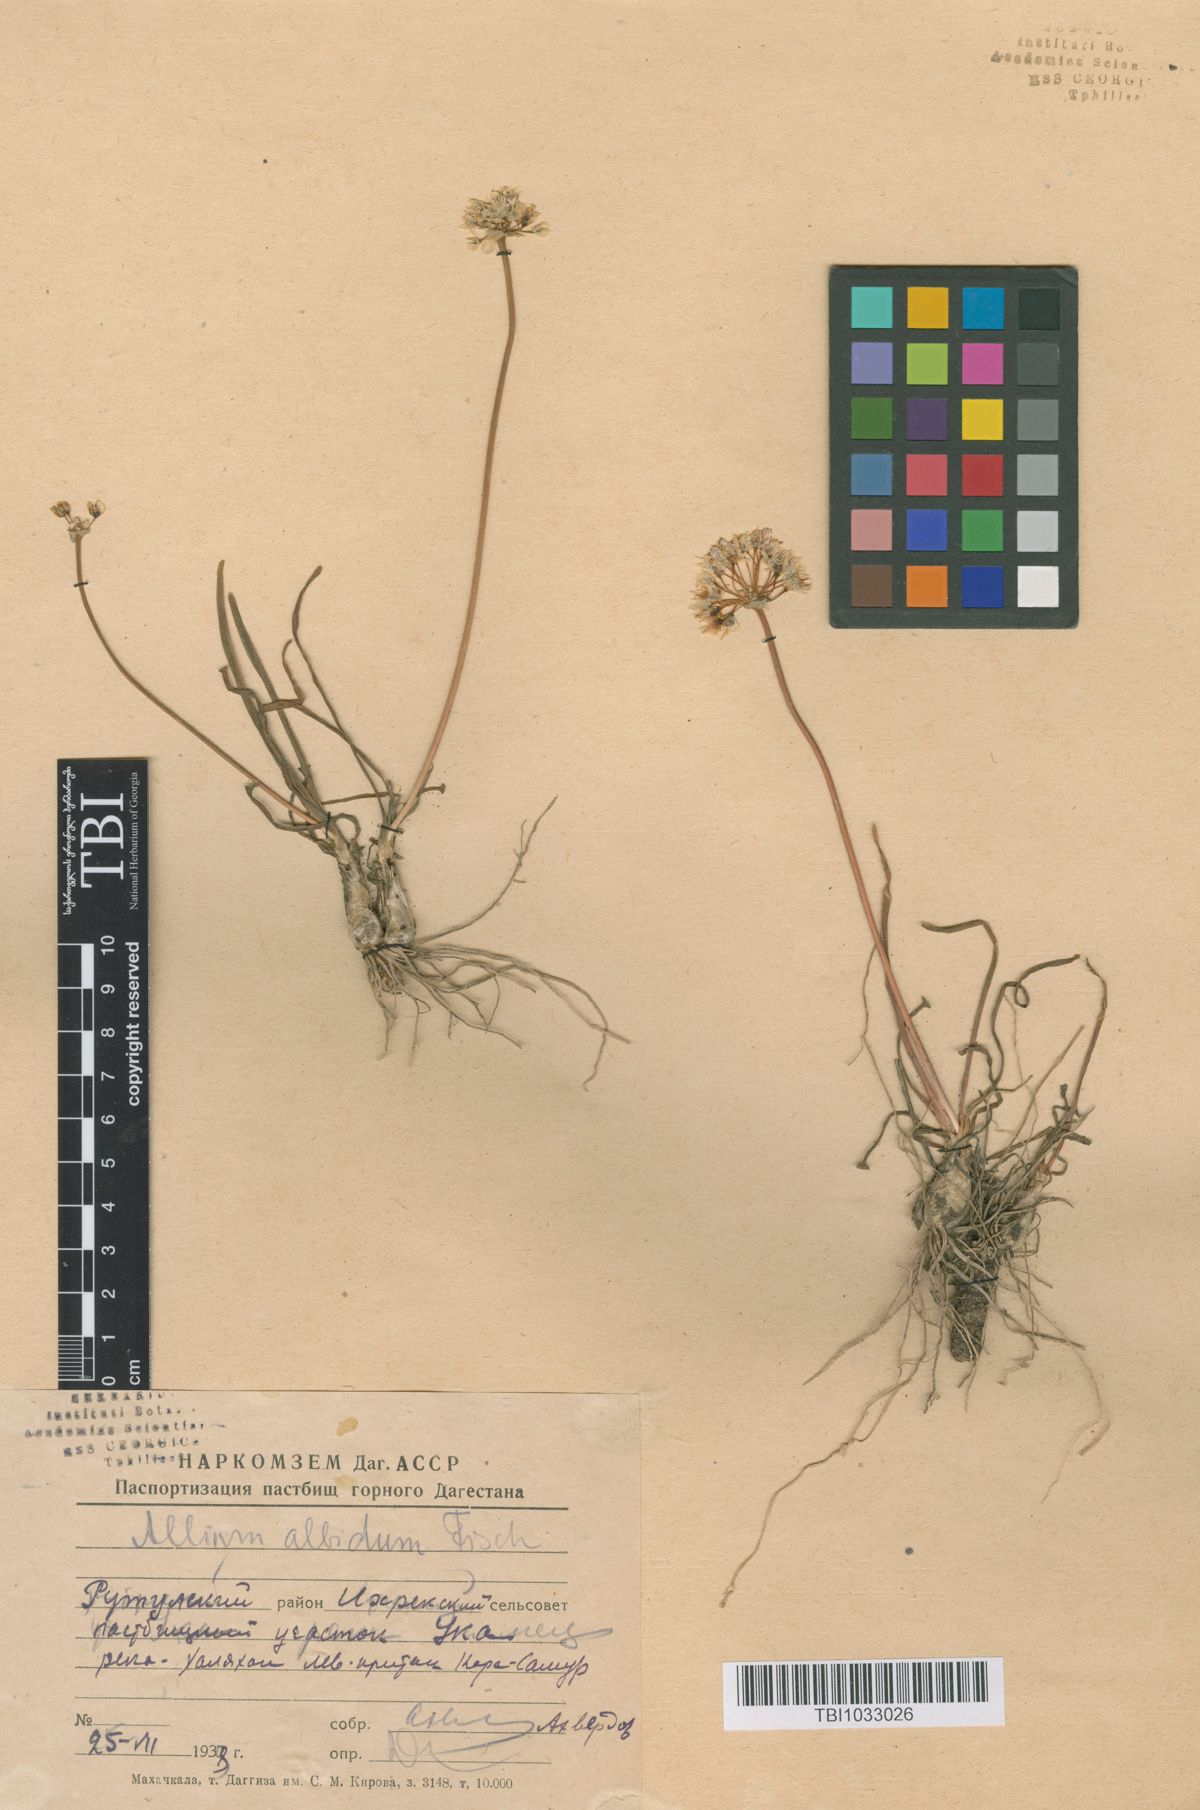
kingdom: Plantae
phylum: Tracheophyta
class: Liliopsida
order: Asparagales
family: Amaryllidaceae
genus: Allium
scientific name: Allium denudatum
